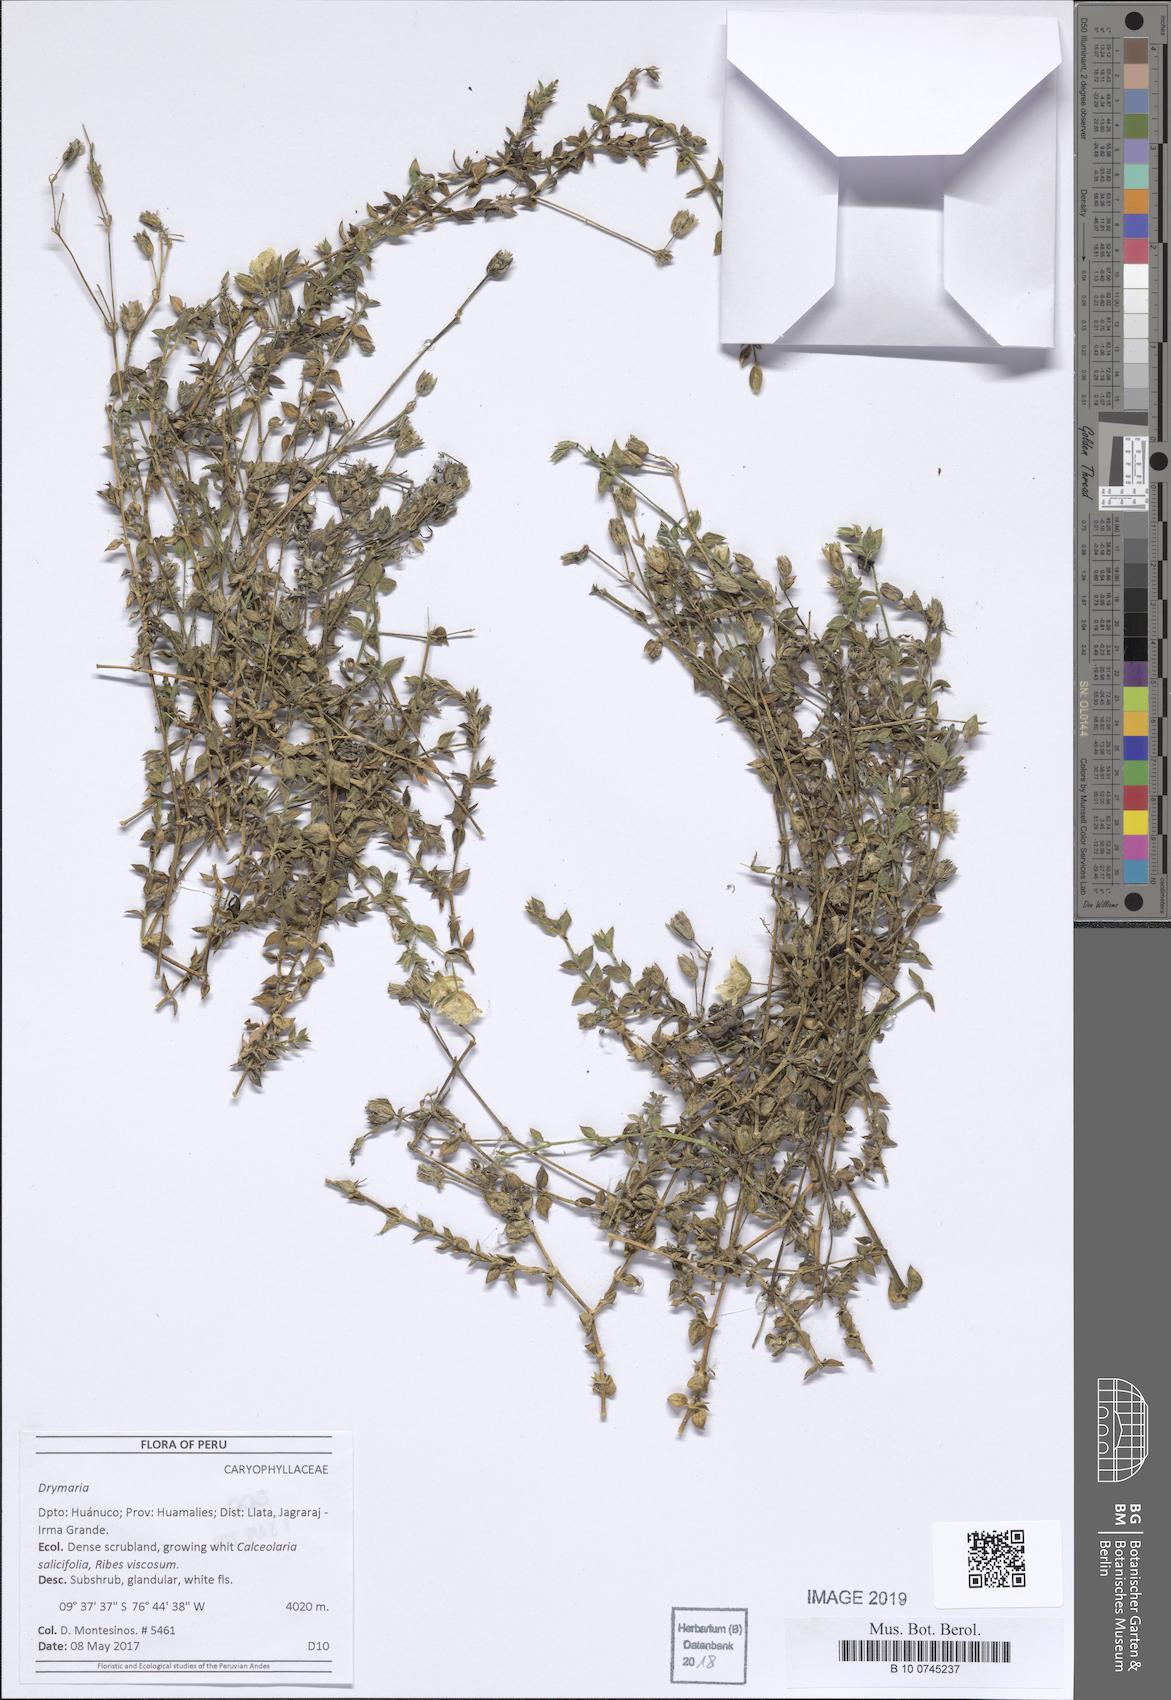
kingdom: Plantae
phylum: Tracheophyta
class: Magnoliopsida
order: Caryophyllales
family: Caryophyllaceae
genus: Drymaria
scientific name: Drymaria
